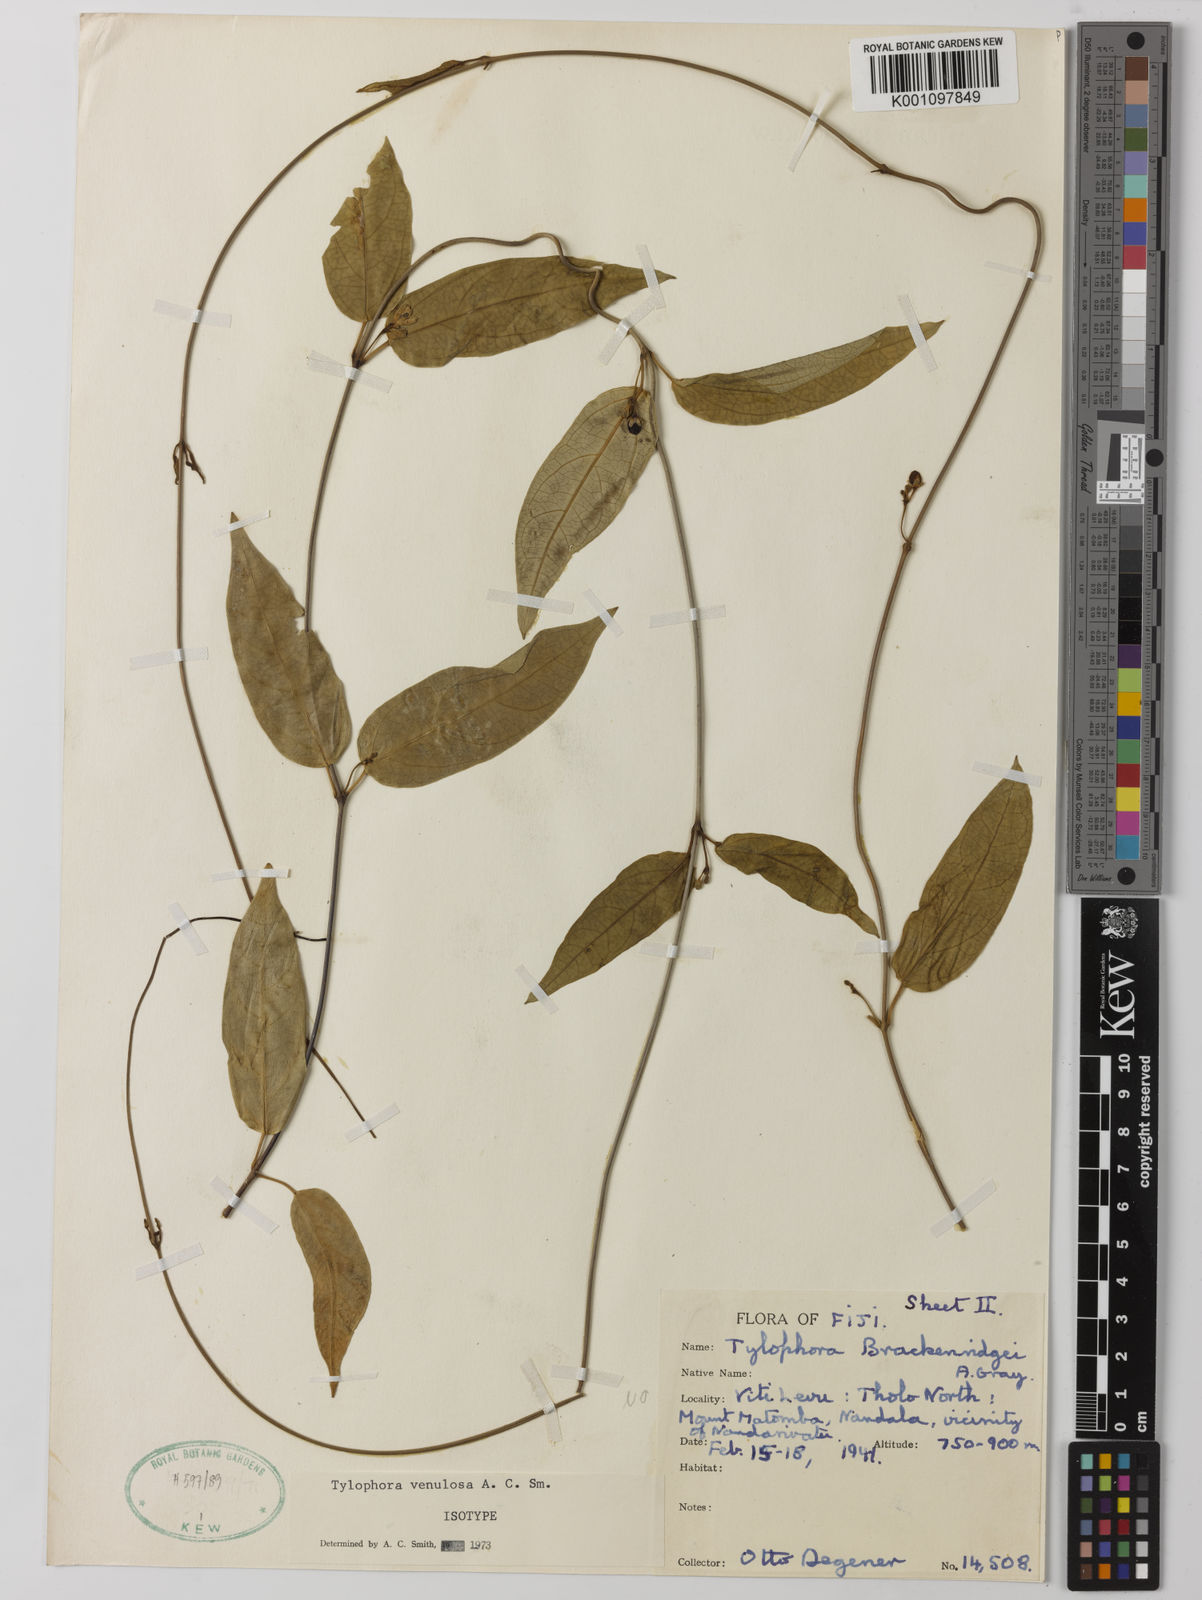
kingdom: Plantae
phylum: Tracheophyta
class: Magnoliopsida
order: Gentianales
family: Apocynaceae
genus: Sarcolobus
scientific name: Sarcolobus venulosus
